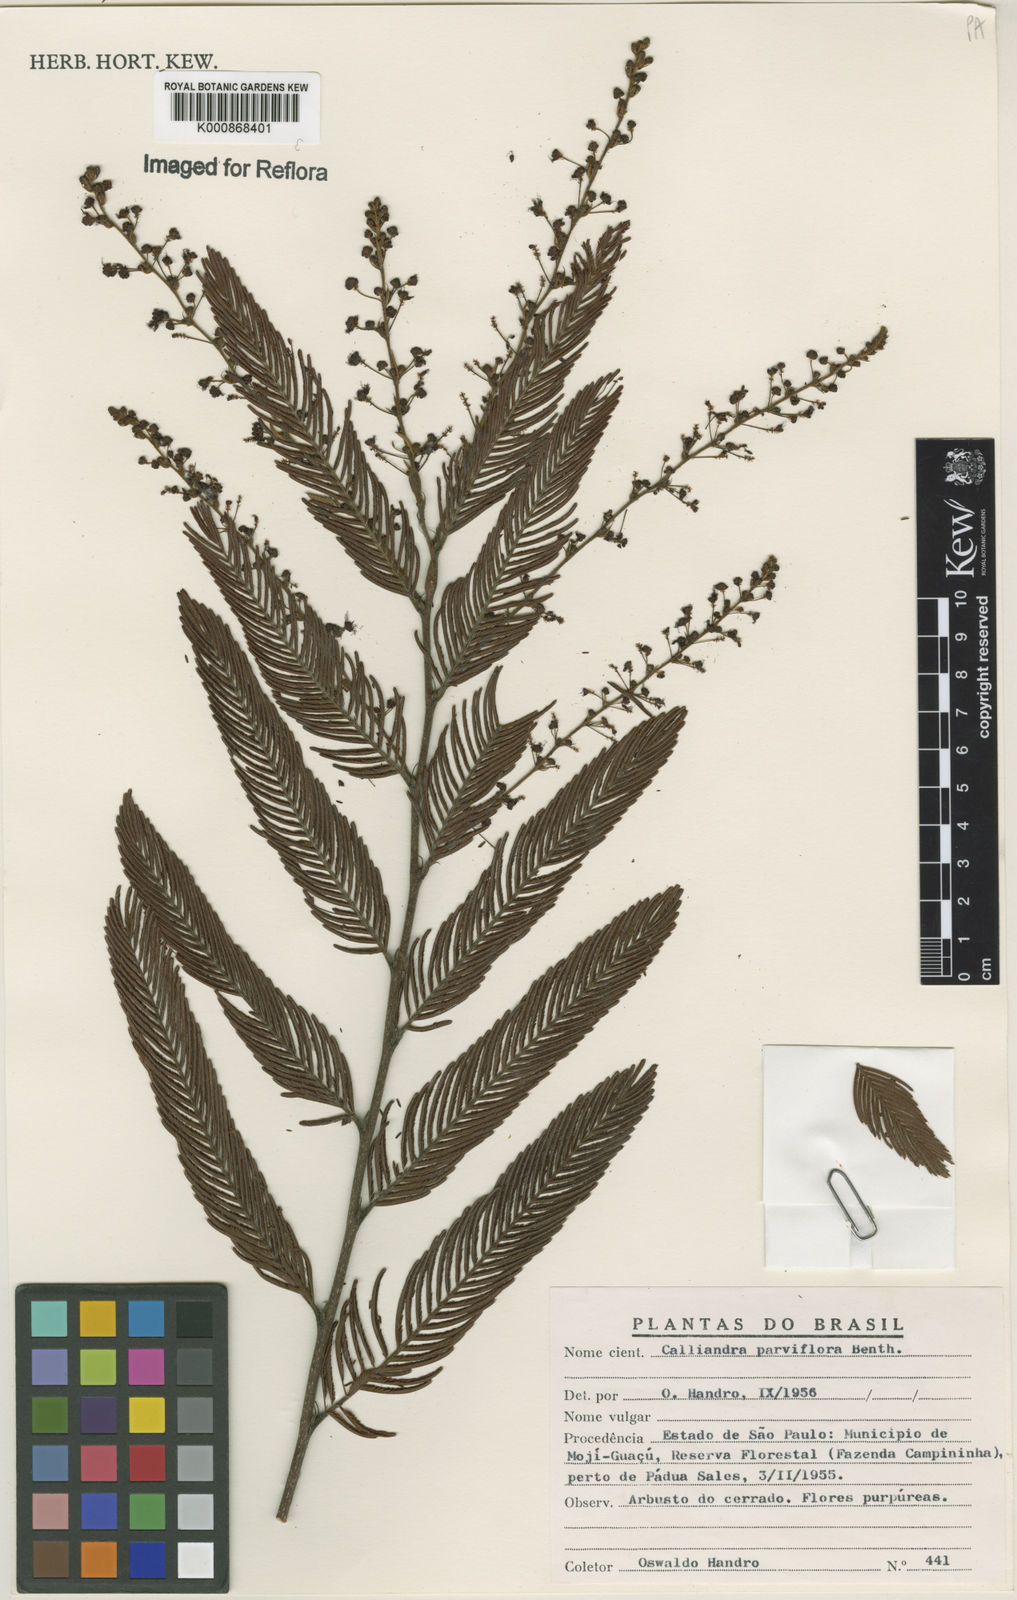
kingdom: Plantae
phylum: Tracheophyta
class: Magnoliopsida
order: Fabales
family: Fabaceae
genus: Calliandra
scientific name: Calliandra parviflora
